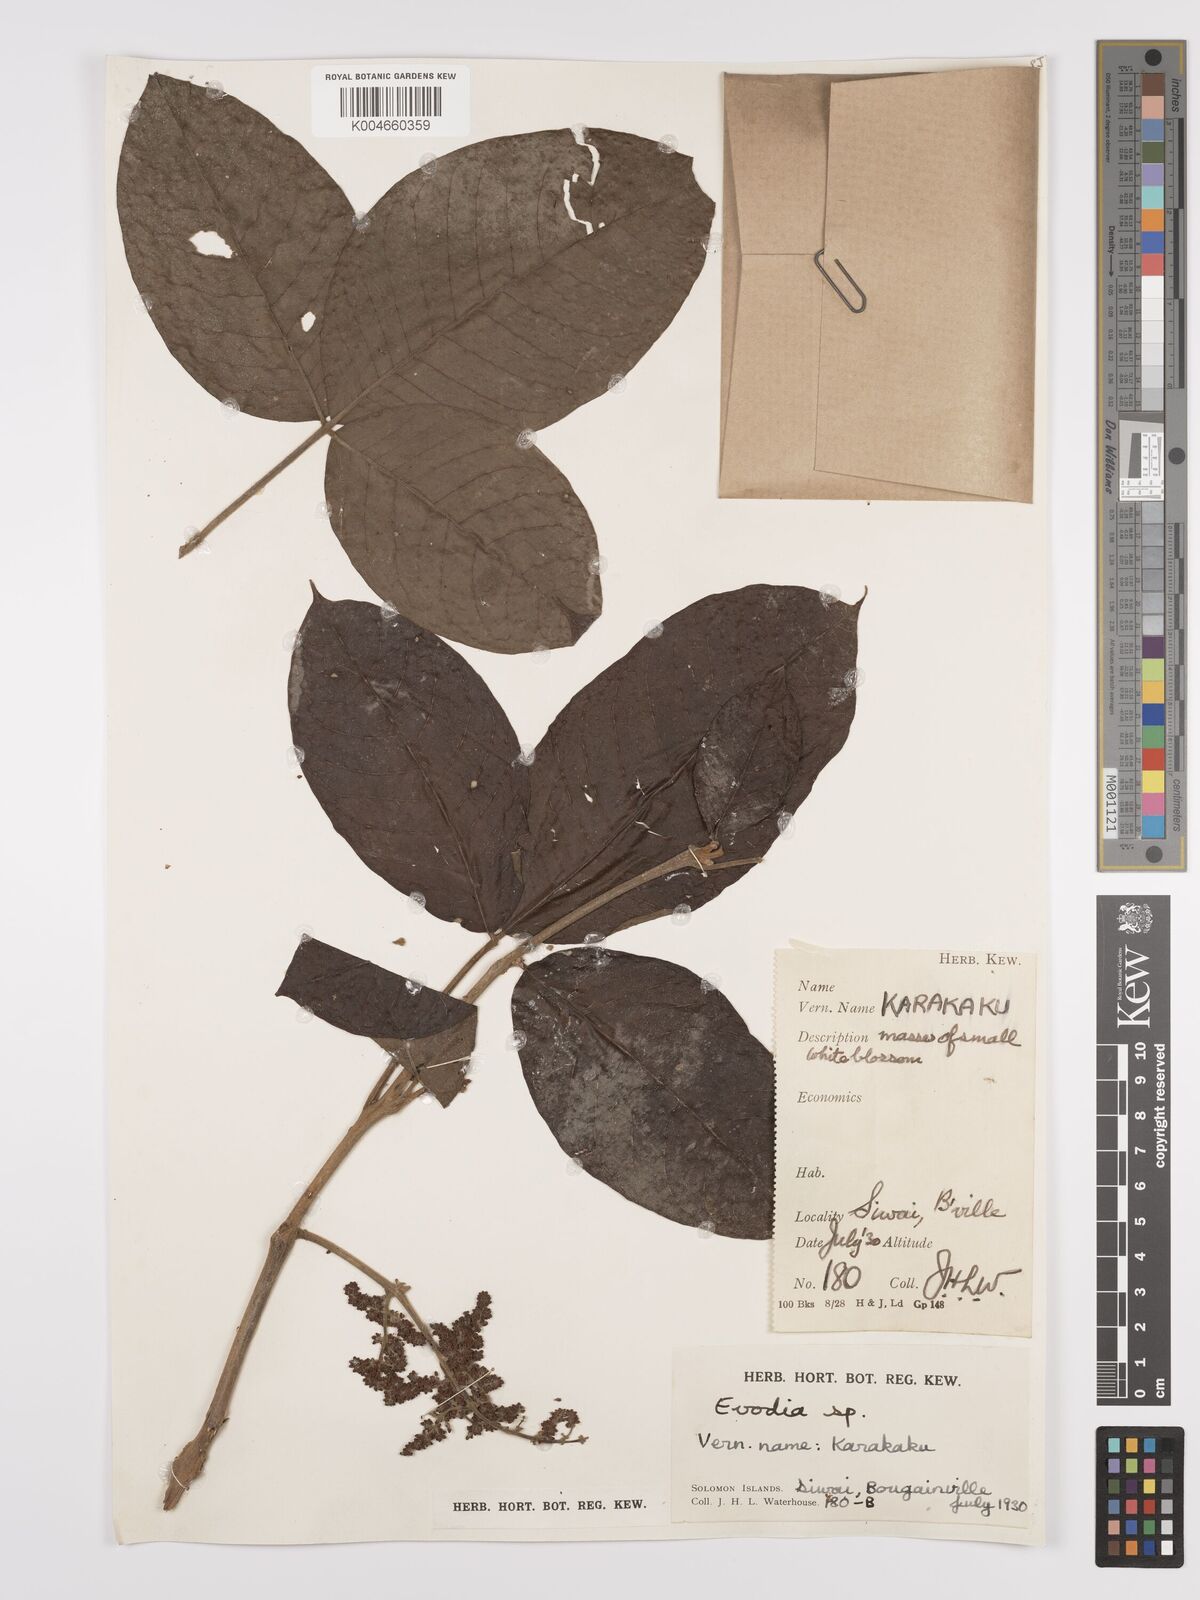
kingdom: Plantae
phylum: Tracheophyta
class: Magnoliopsida
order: Sapindales
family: Rutaceae
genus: Euodia
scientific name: Euodia
